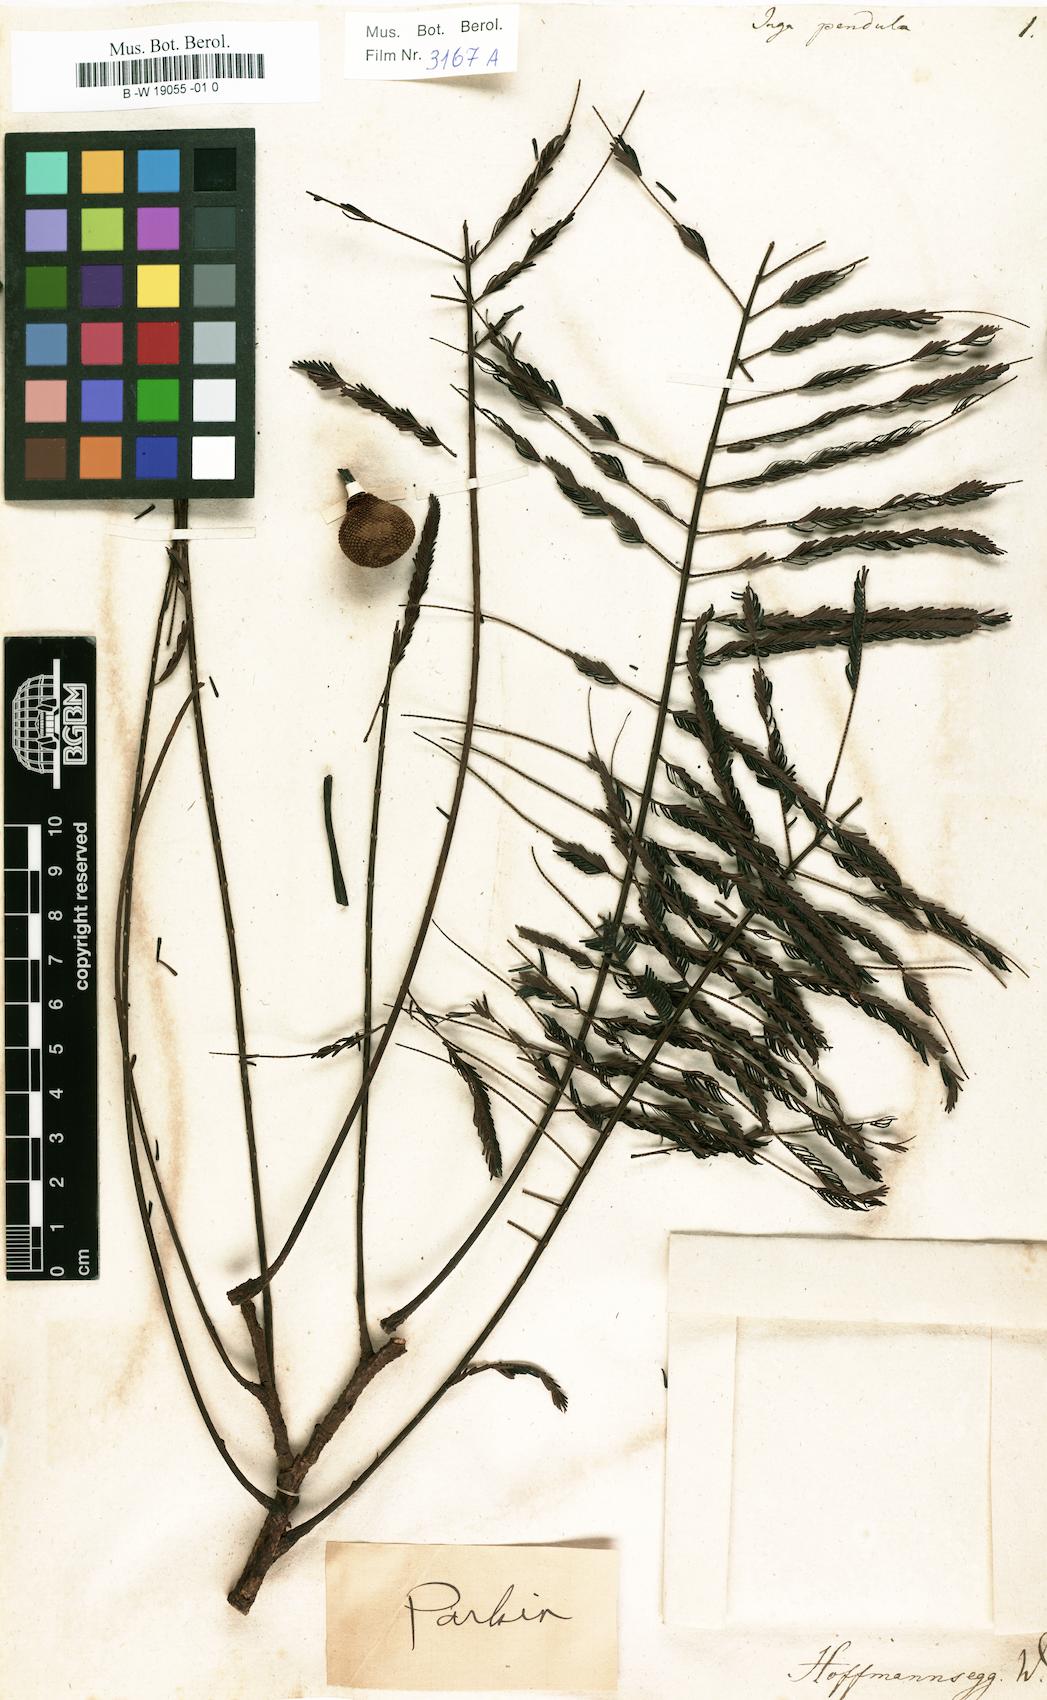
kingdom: Plantae
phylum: Tracheophyta
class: Magnoliopsida
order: Fabales
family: Fabaceae
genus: Parkia
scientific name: Parkia pendula
